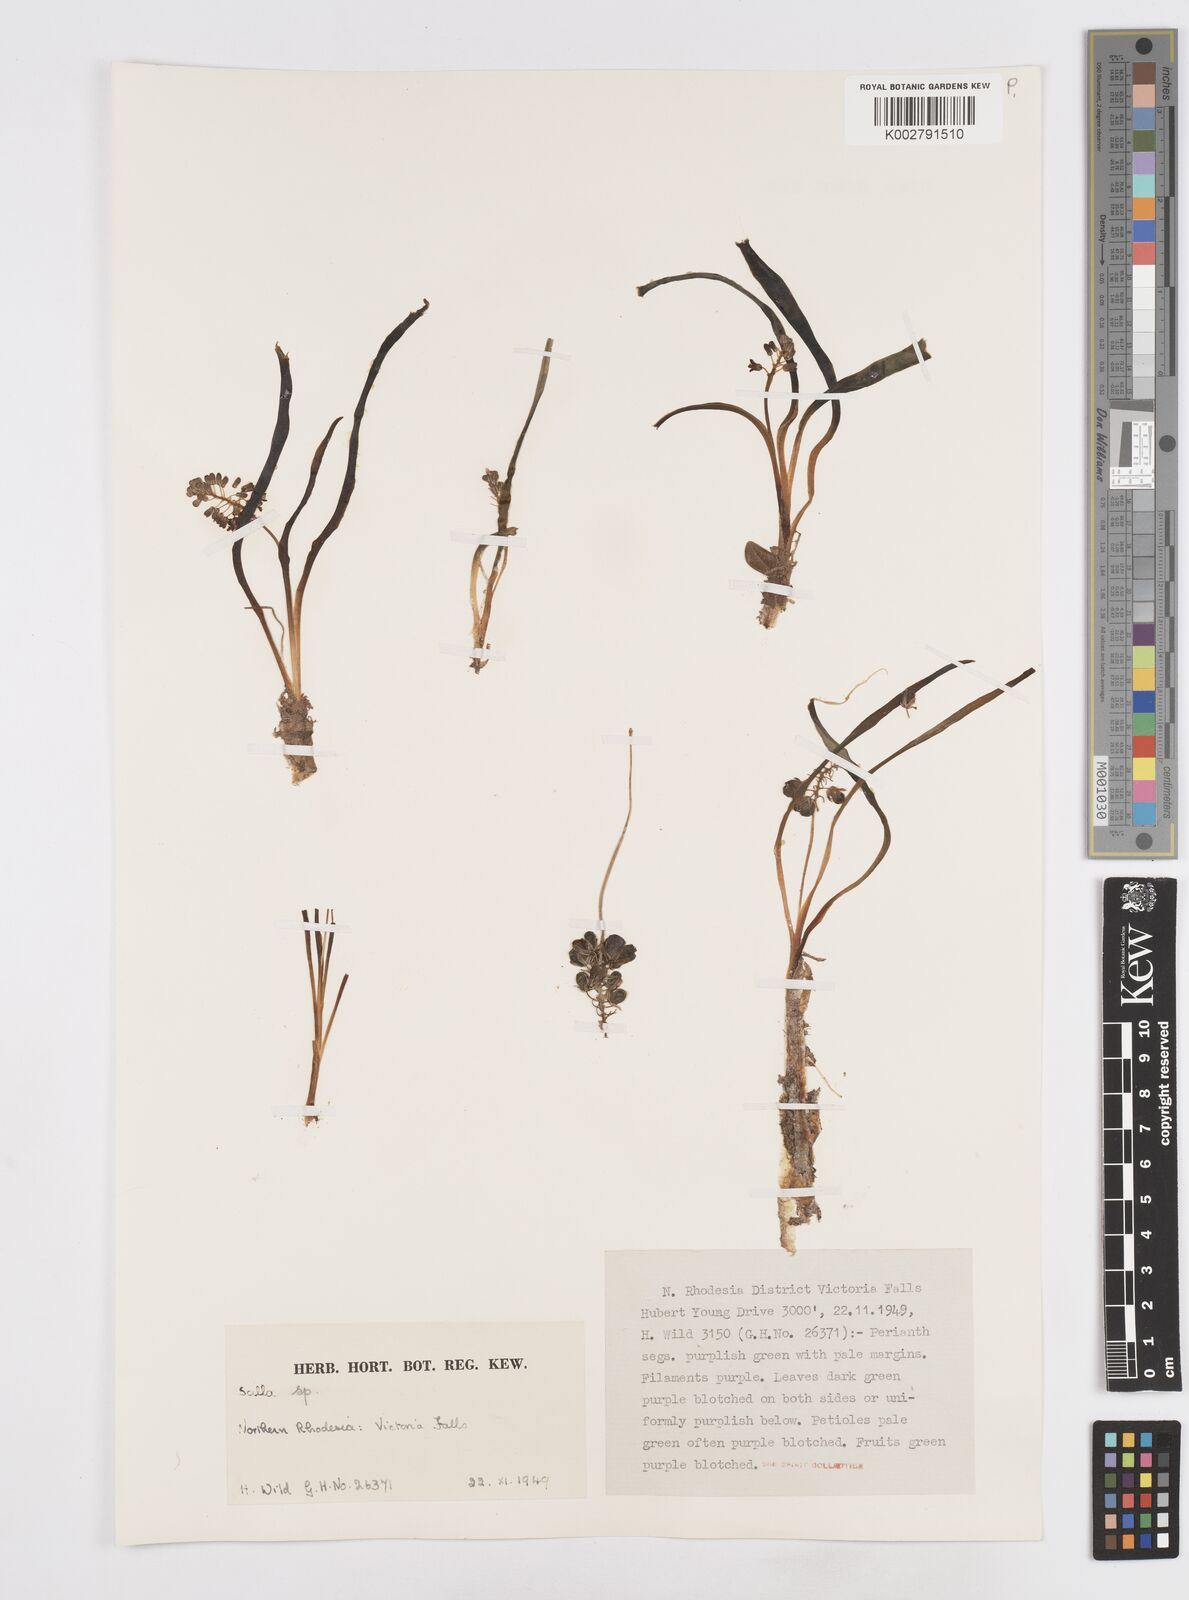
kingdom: Plantae
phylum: Tracheophyta
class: Liliopsida
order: Asparagales
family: Asparagaceae
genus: Scilla
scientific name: Scilla
